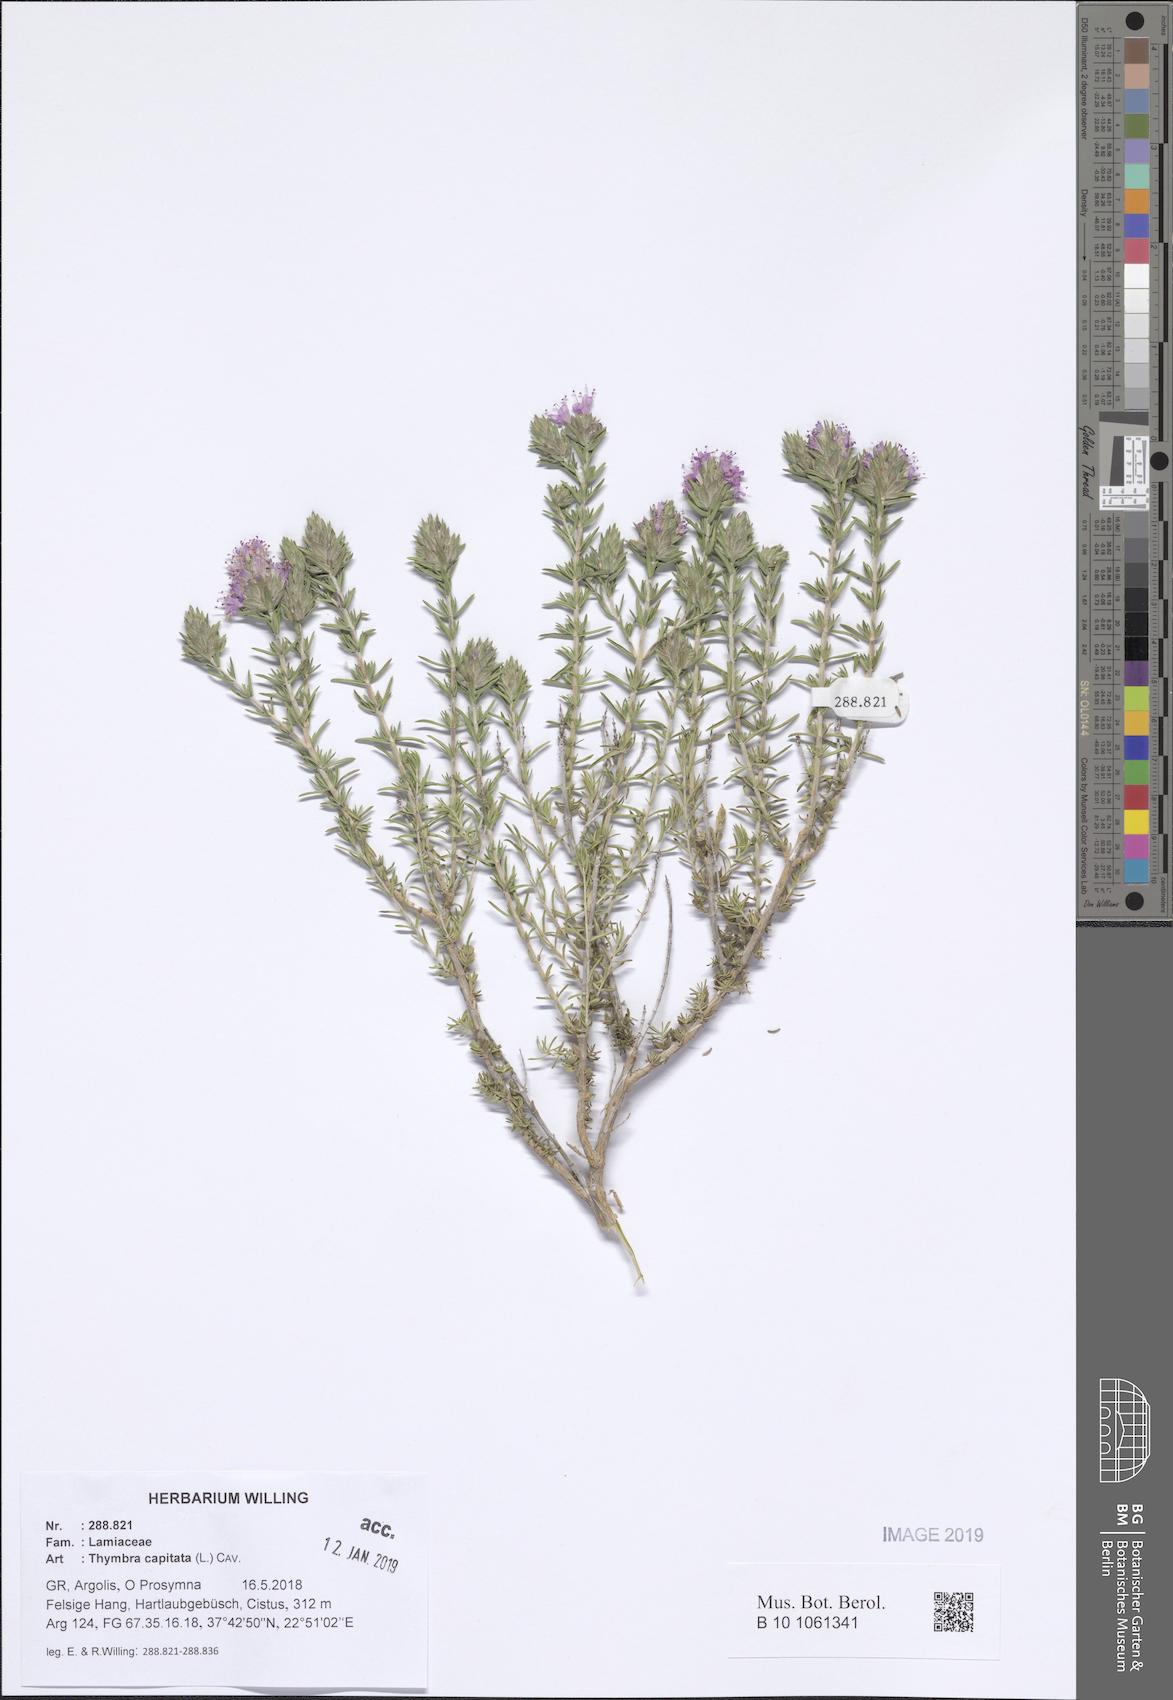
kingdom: Plantae
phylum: Tracheophyta
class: Magnoliopsida
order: Lamiales
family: Lamiaceae
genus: Thymbra
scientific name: Thymbra capitata
